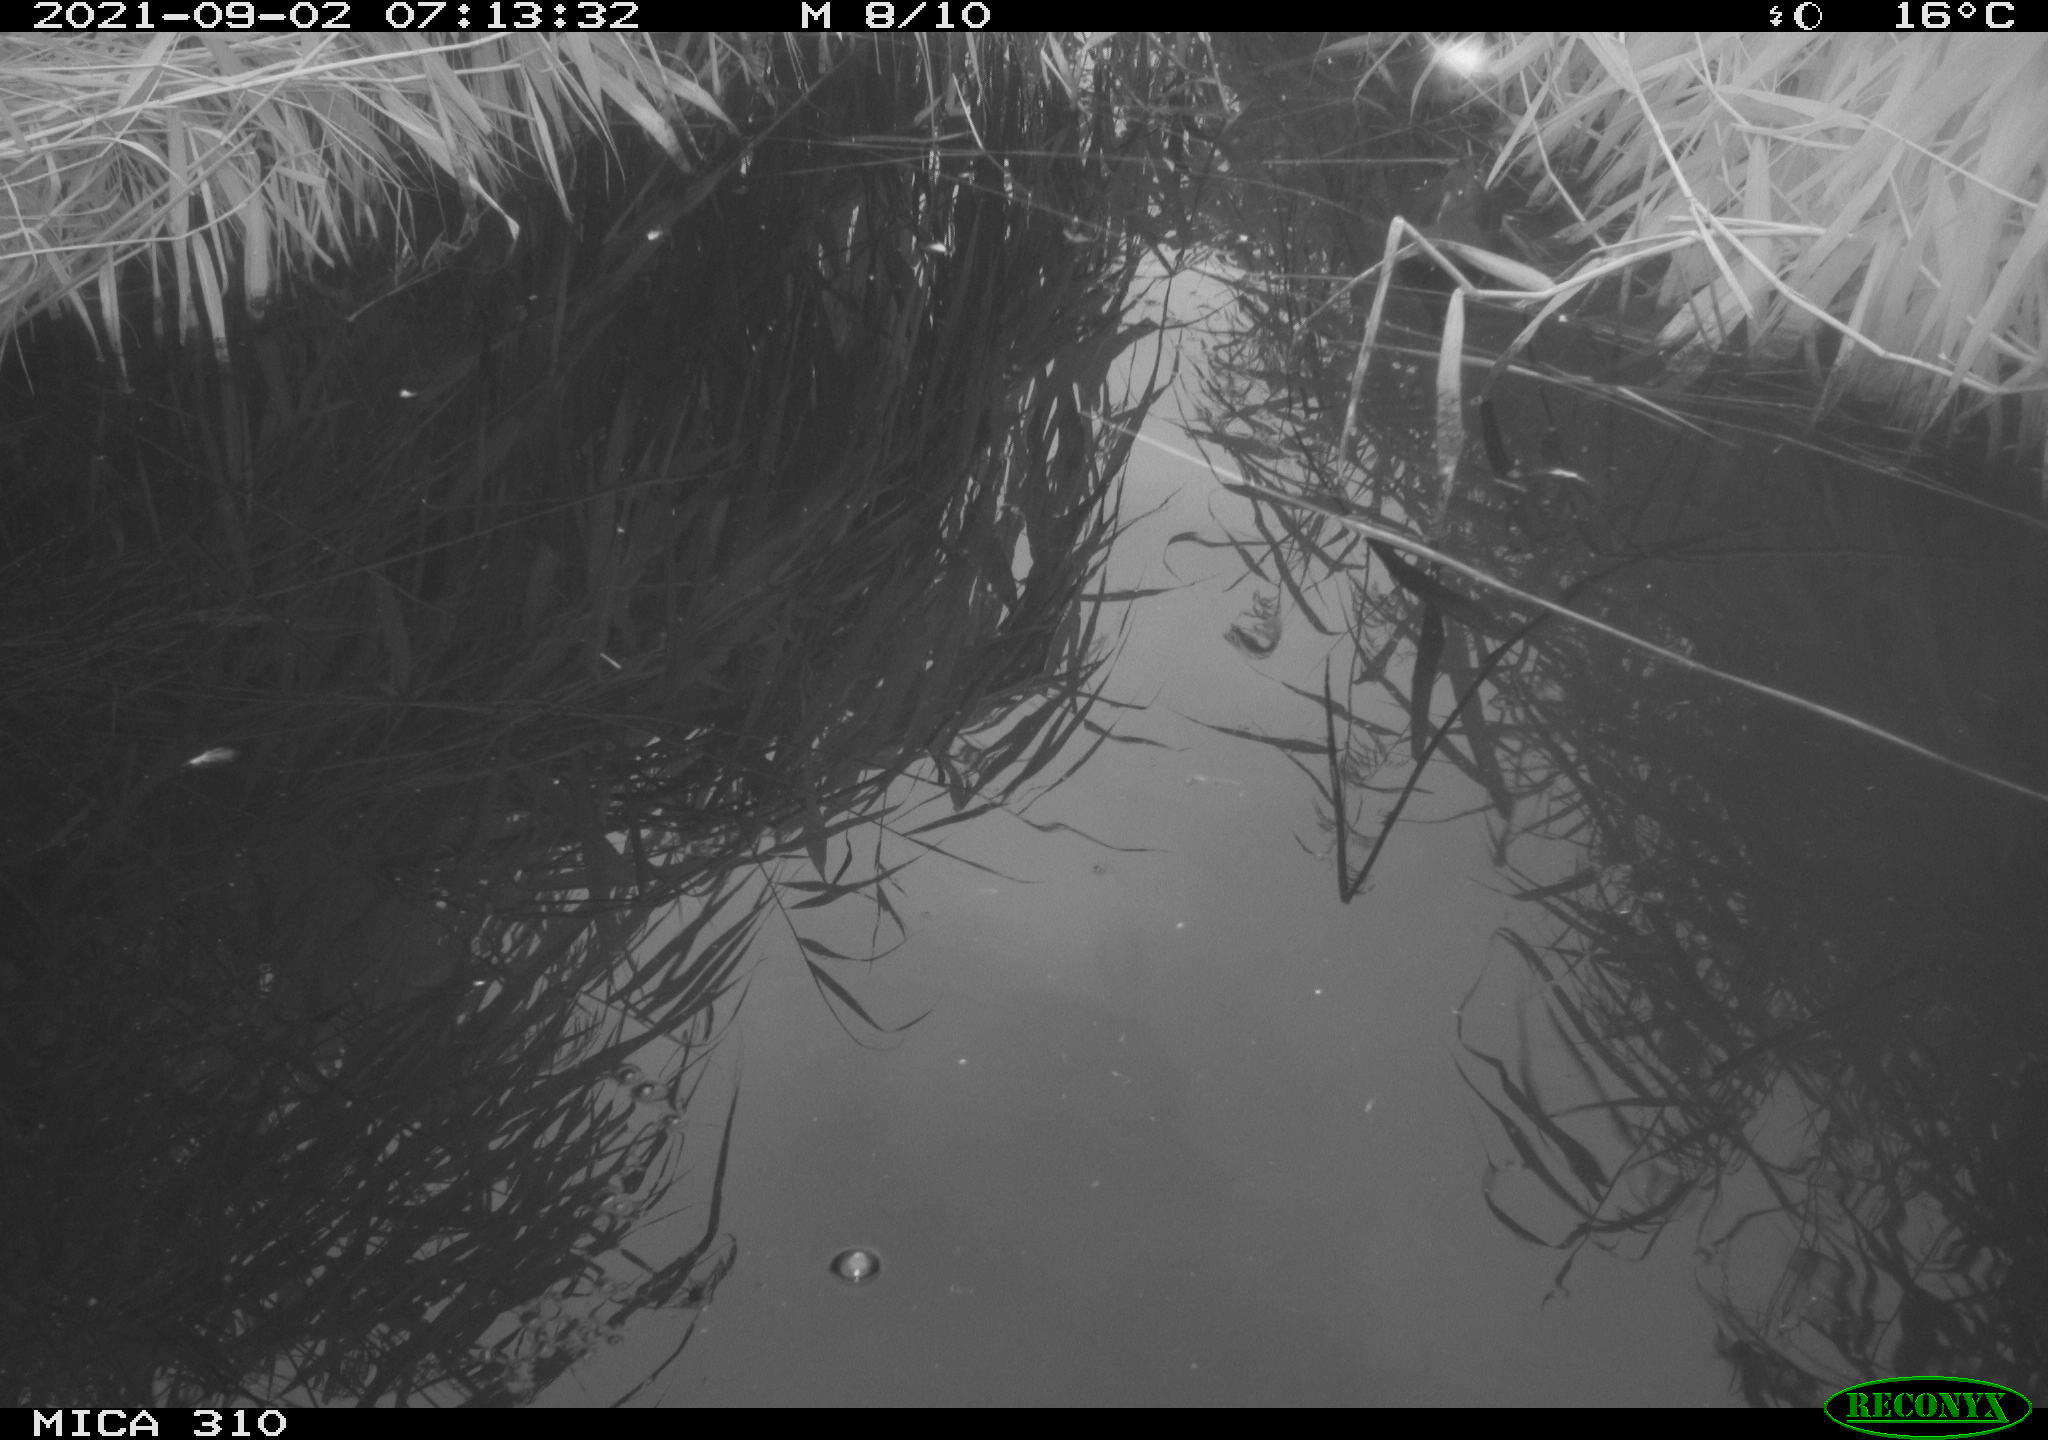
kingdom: Animalia
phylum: Chordata
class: Aves
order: Gruiformes
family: Rallidae
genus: Gallinula
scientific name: Gallinula chloropus
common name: Common moorhen
